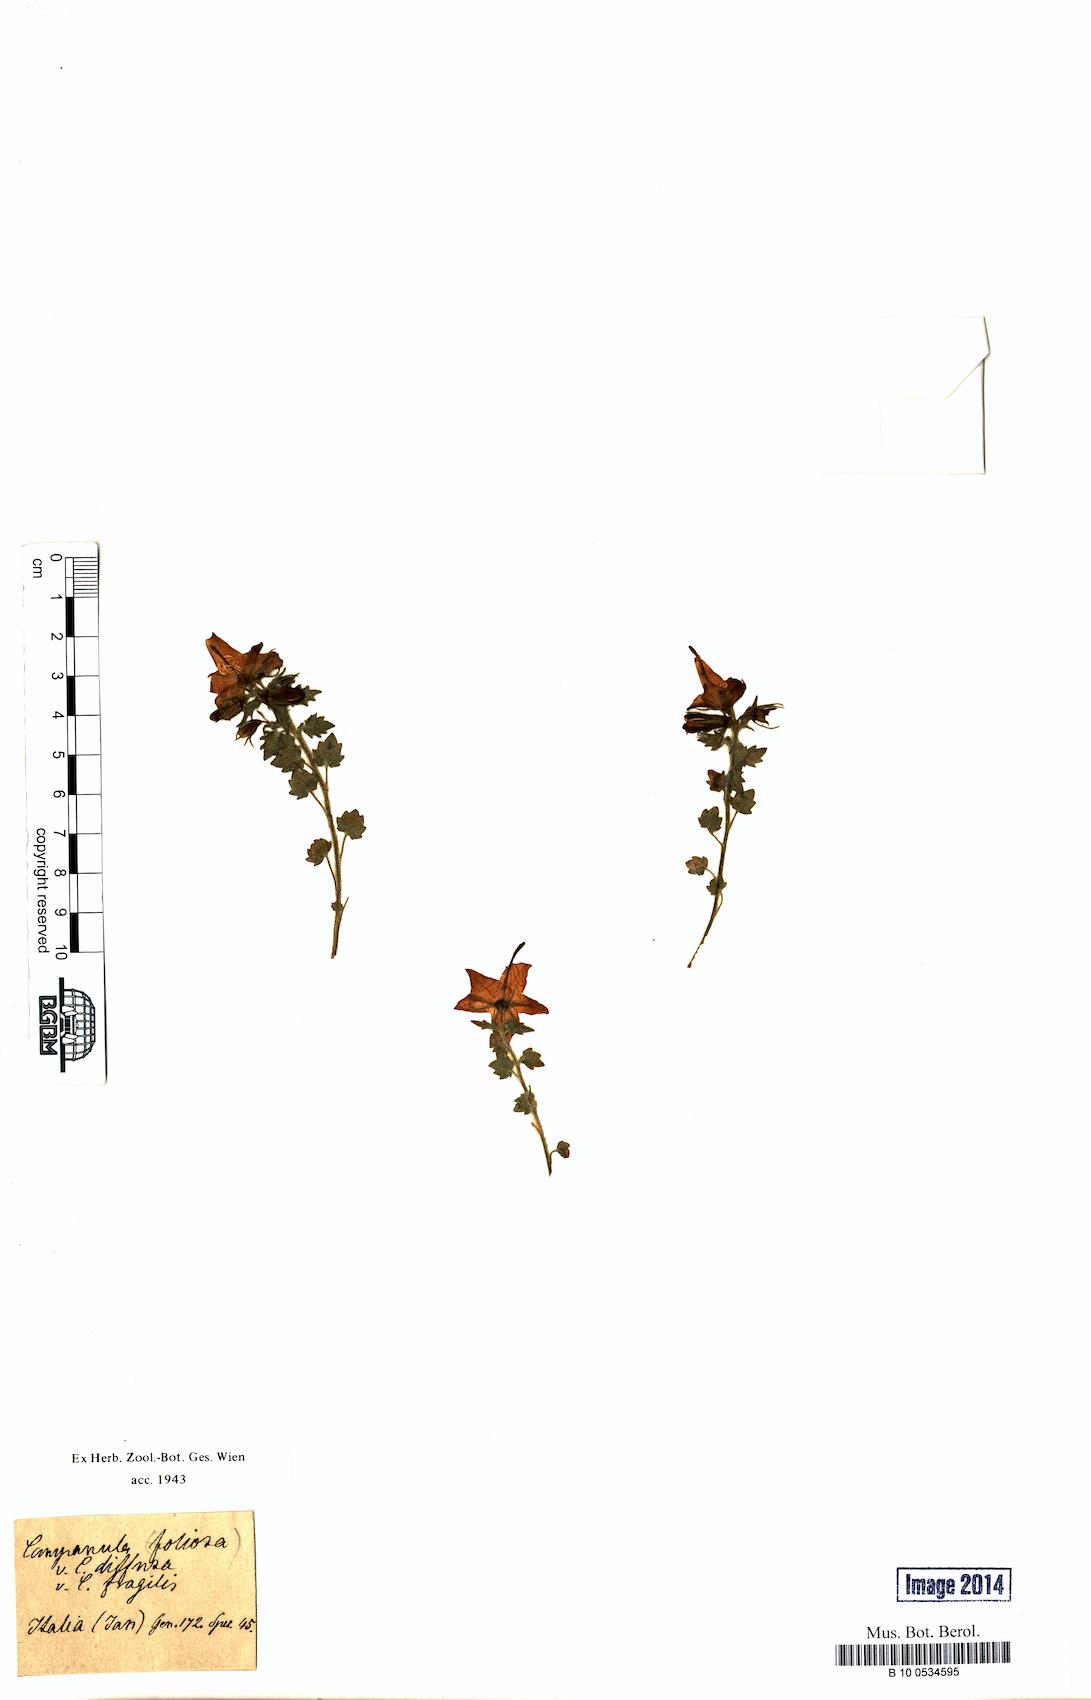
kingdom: Plantae
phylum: Tracheophyta
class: Magnoliopsida
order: Asterales
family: Campanulaceae
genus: Campanula
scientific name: Campanula foliosa
